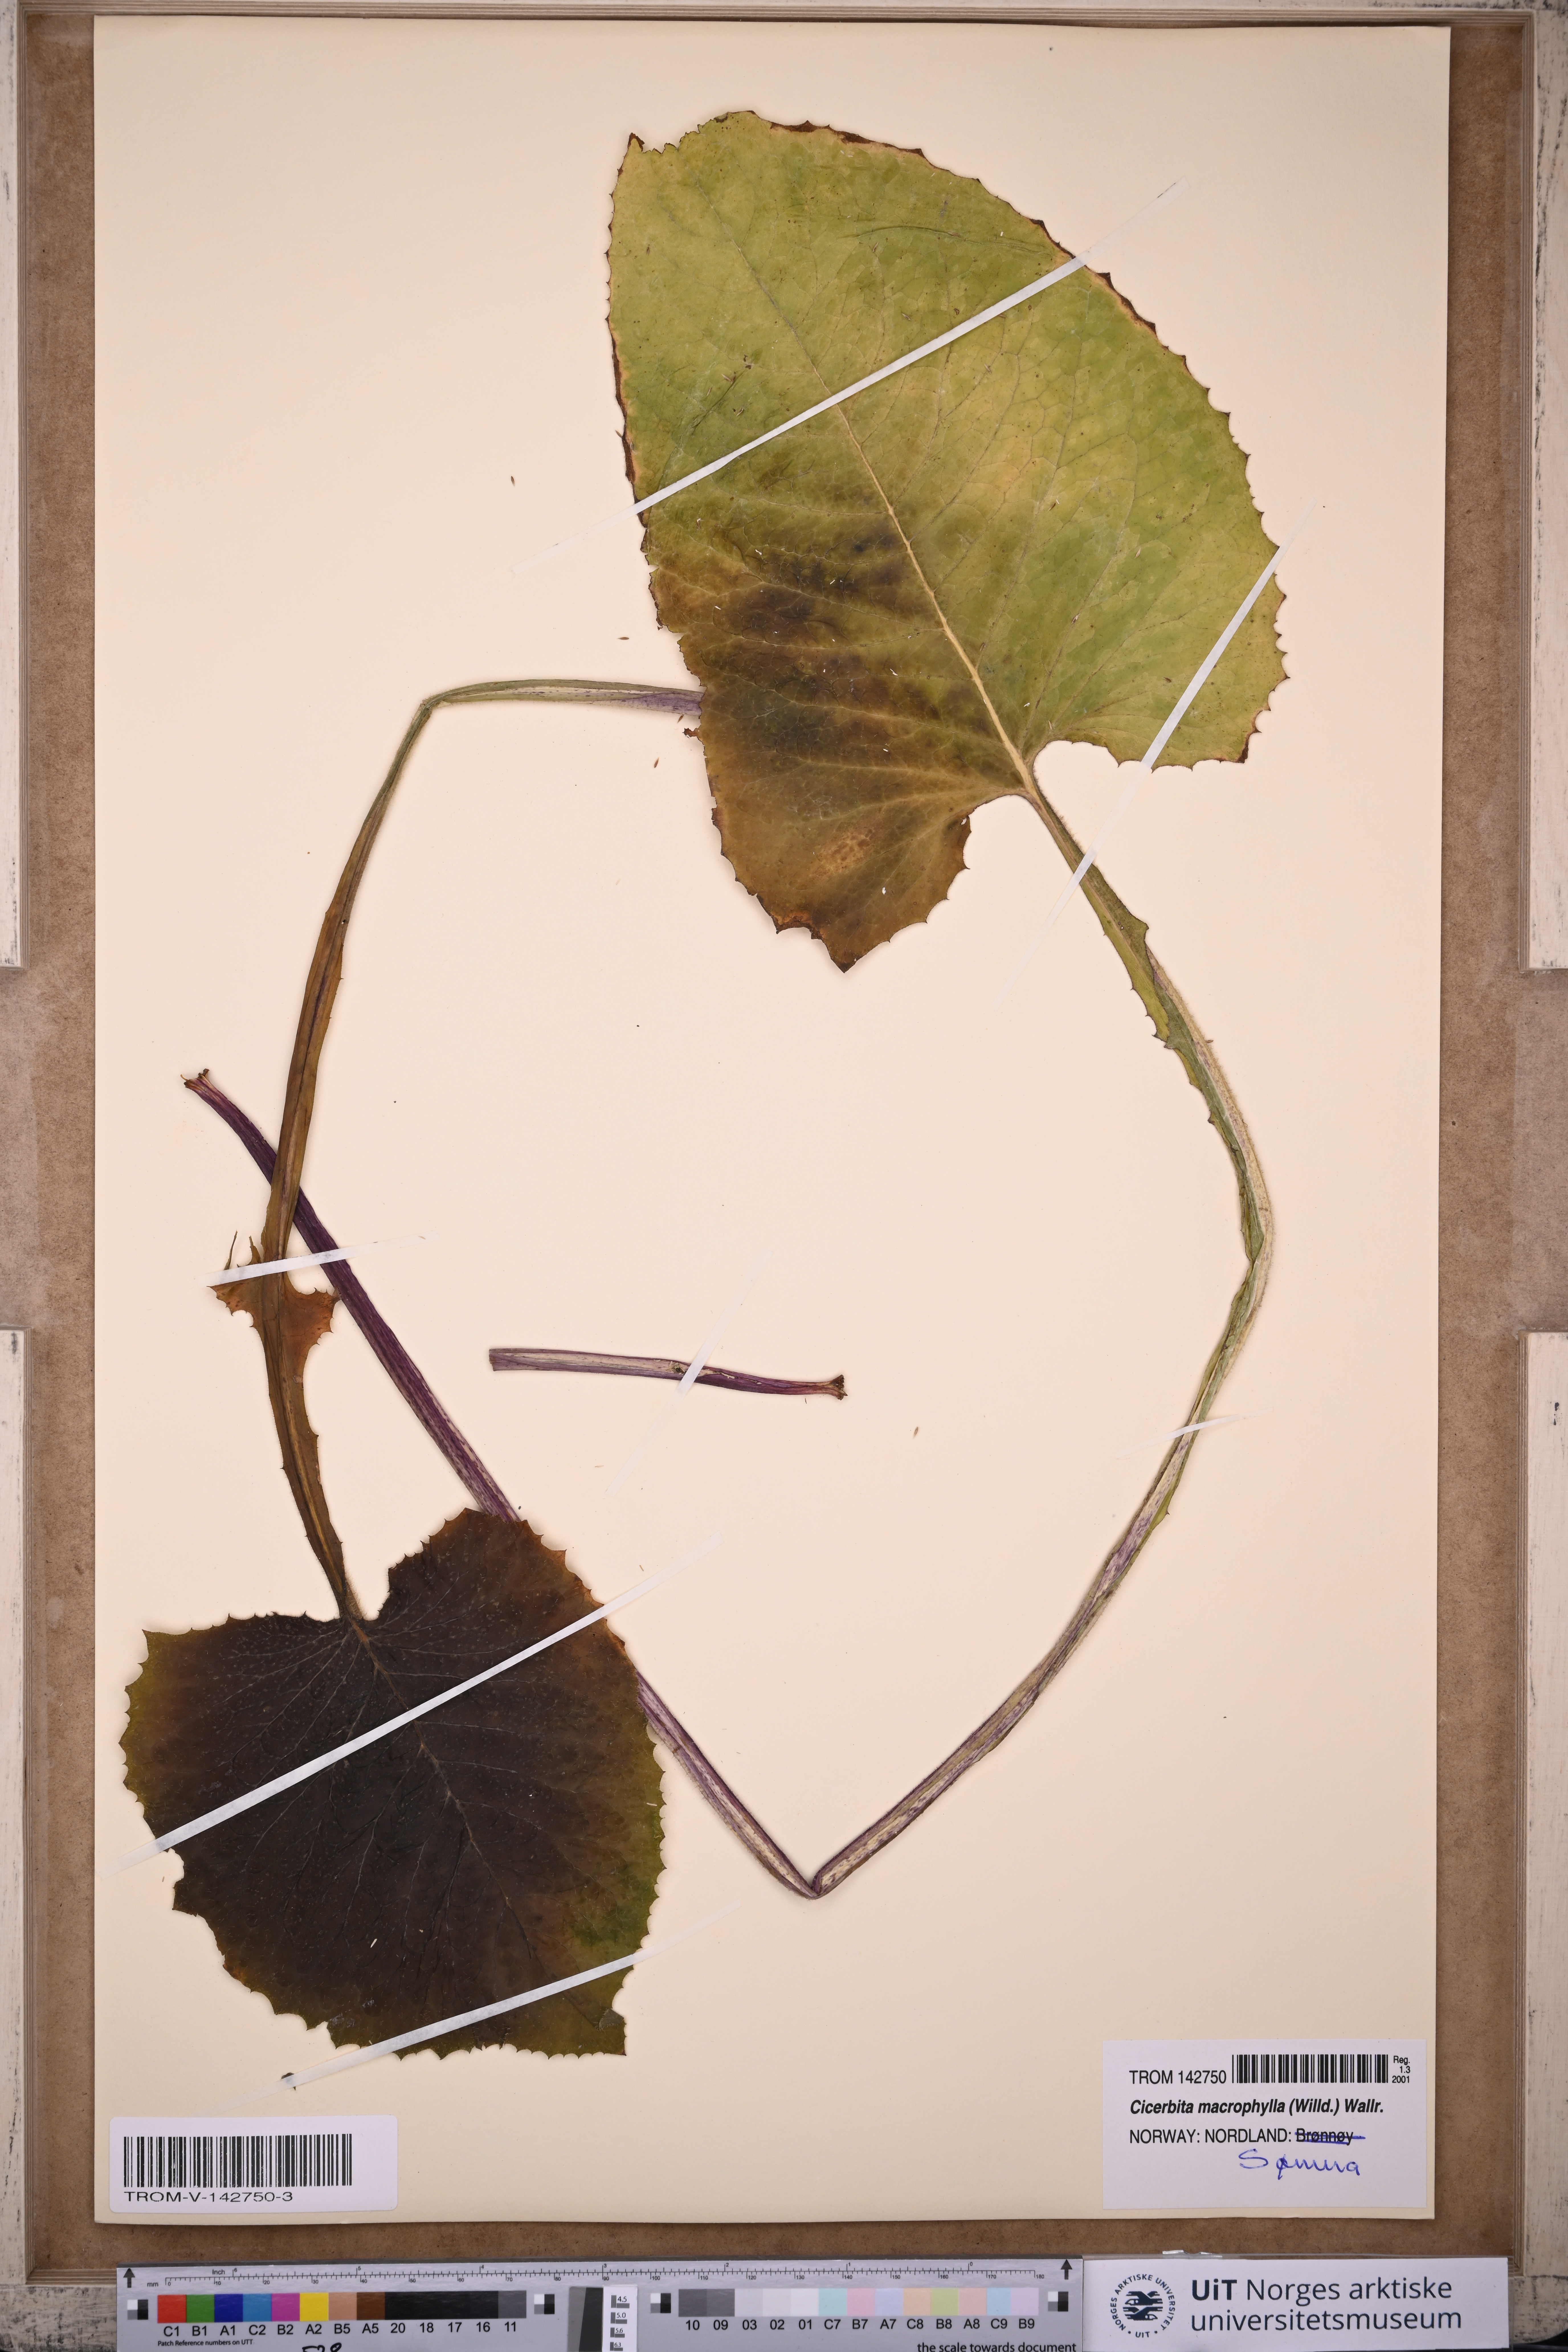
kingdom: Plantae
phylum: Tracheophyta
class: Magnoliopsida
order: Asterales
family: Asteraceae
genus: Lactuca
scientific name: Lactuca macrophylla
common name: Common blue-sow-thistle
